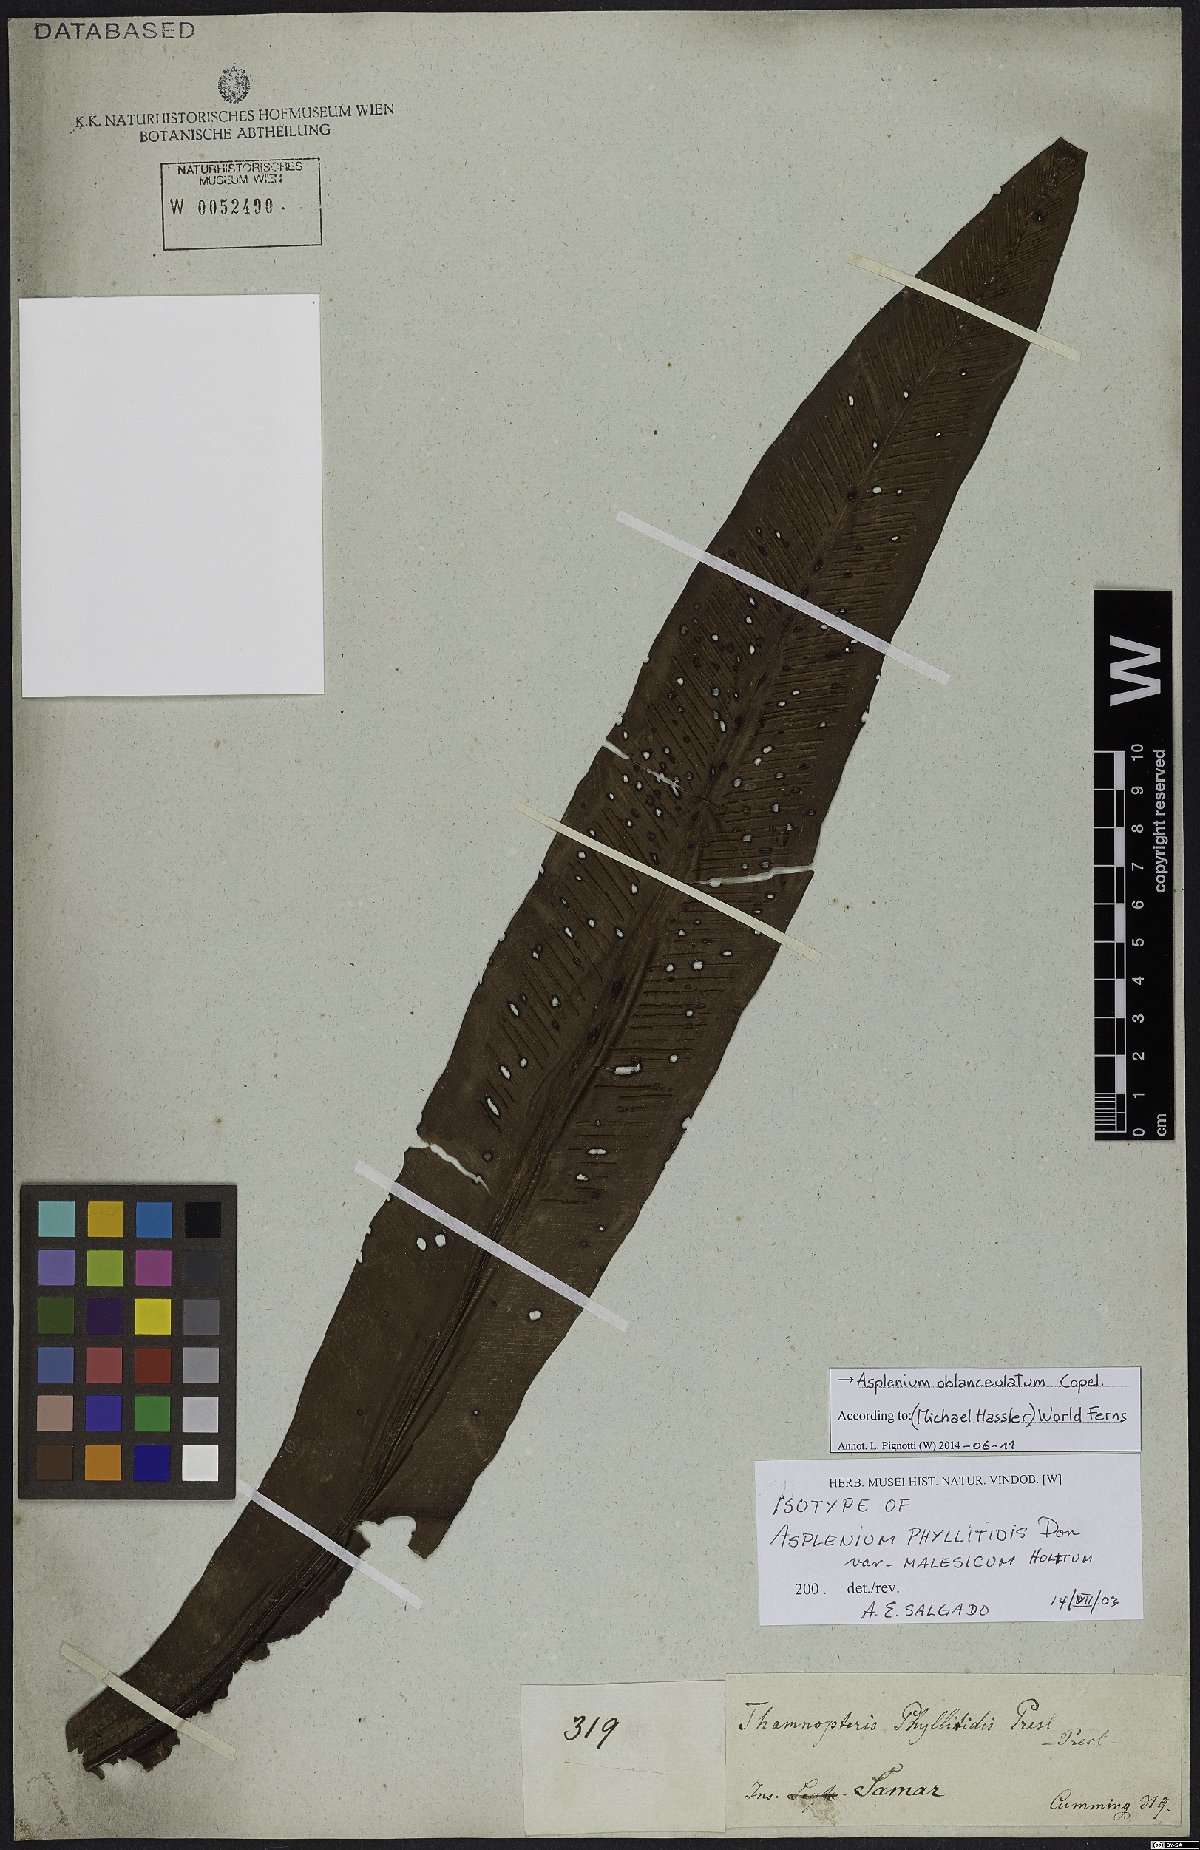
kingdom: Plantae
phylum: Tracheophyta
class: Polypodiopsida
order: Polypodiales
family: Aspleniaceae
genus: Asplenium
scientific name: Asplenium anguineum
